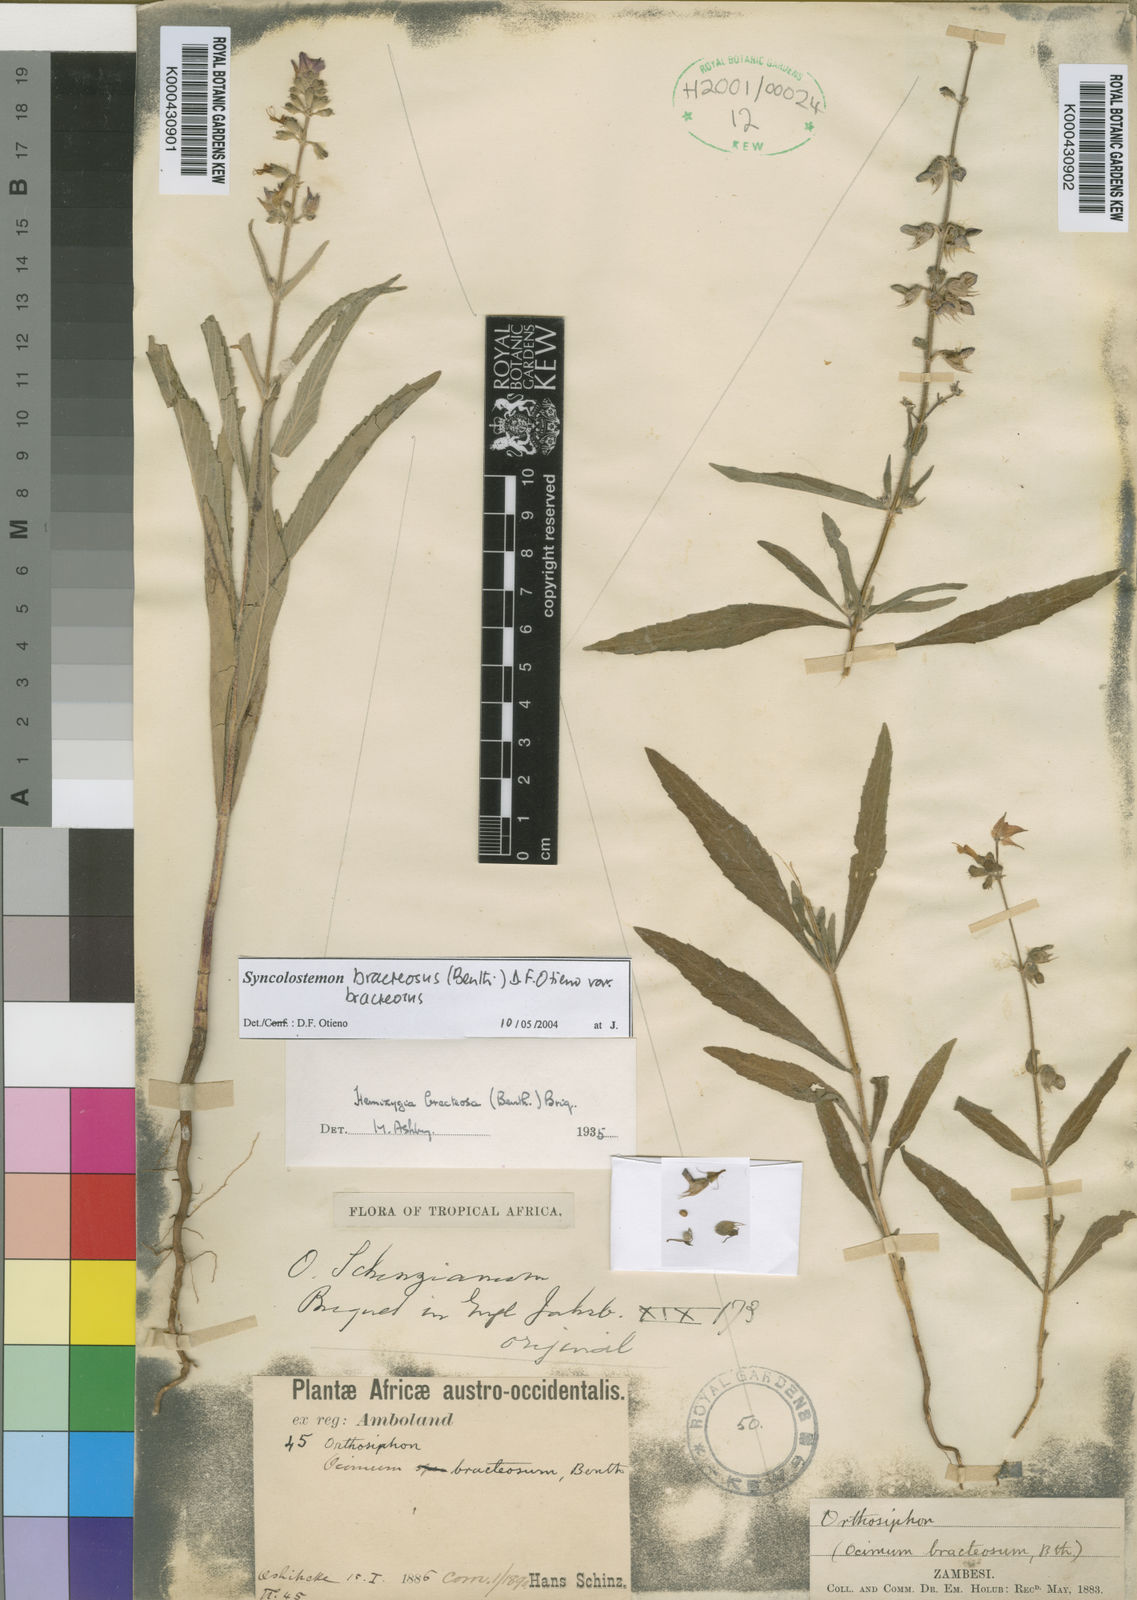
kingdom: Plantae
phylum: Tracheophyta
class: Magnoliopsida
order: Lamiales
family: Lamiaceae
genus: Syncolostemon
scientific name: Syncolostemon bracteosus
